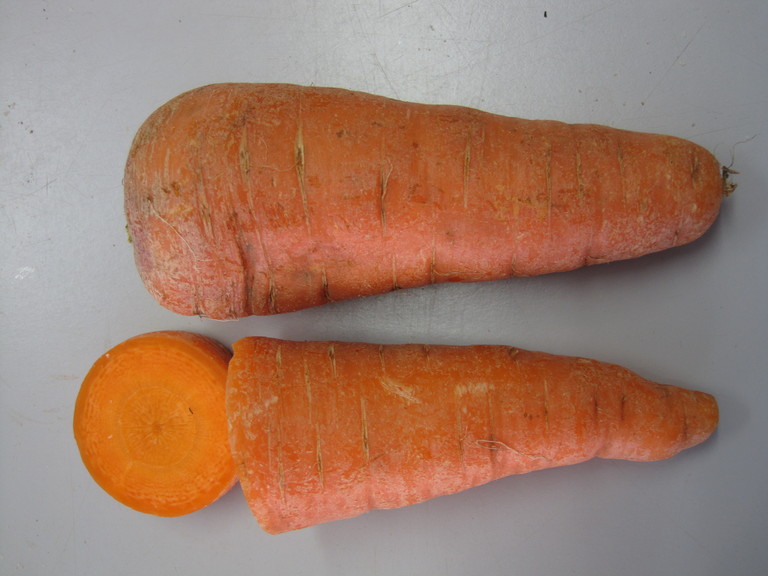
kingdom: Plantae
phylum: Tracheophyta
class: Magnoliopsida
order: Apiales
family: Apiaceae
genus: Daucus
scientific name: Daucus carota
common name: Wild carrot
